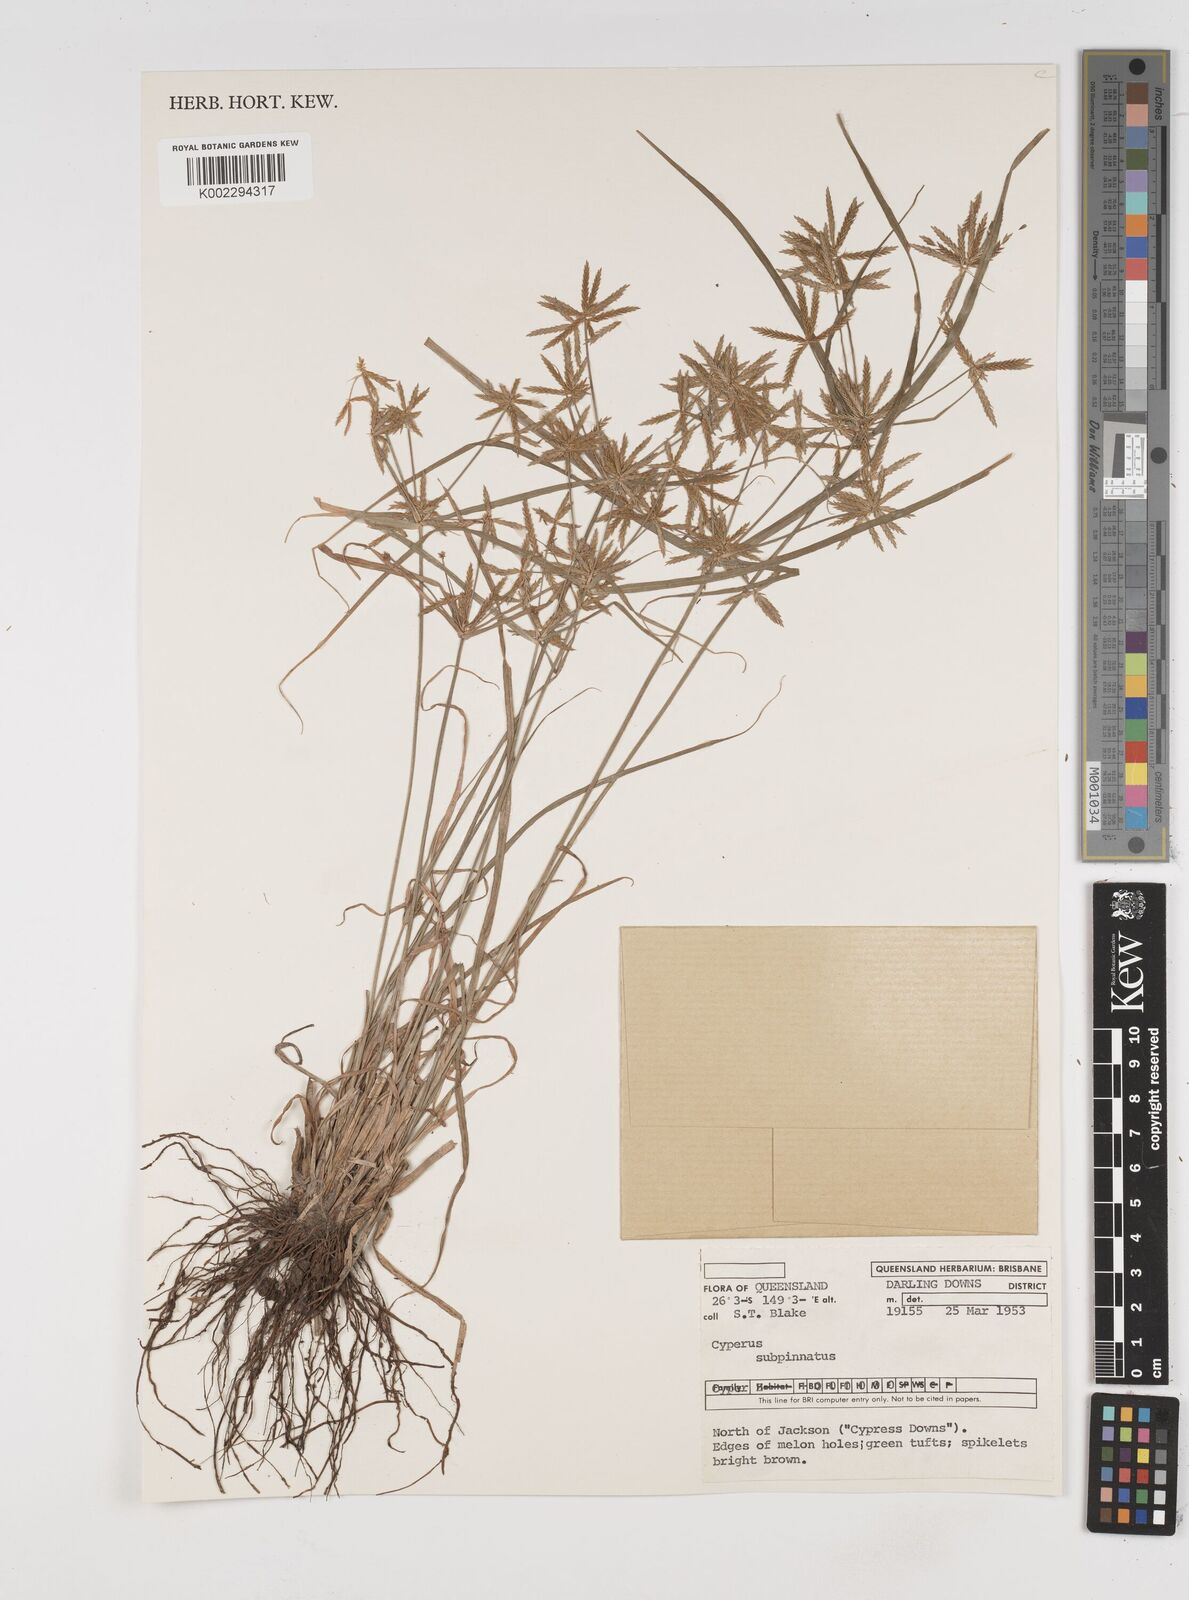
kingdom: Plantae
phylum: Tracheophyta
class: Liliopsida
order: Poales
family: Cyperaceae
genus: Cyperus
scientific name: Cyperus rigidellus
